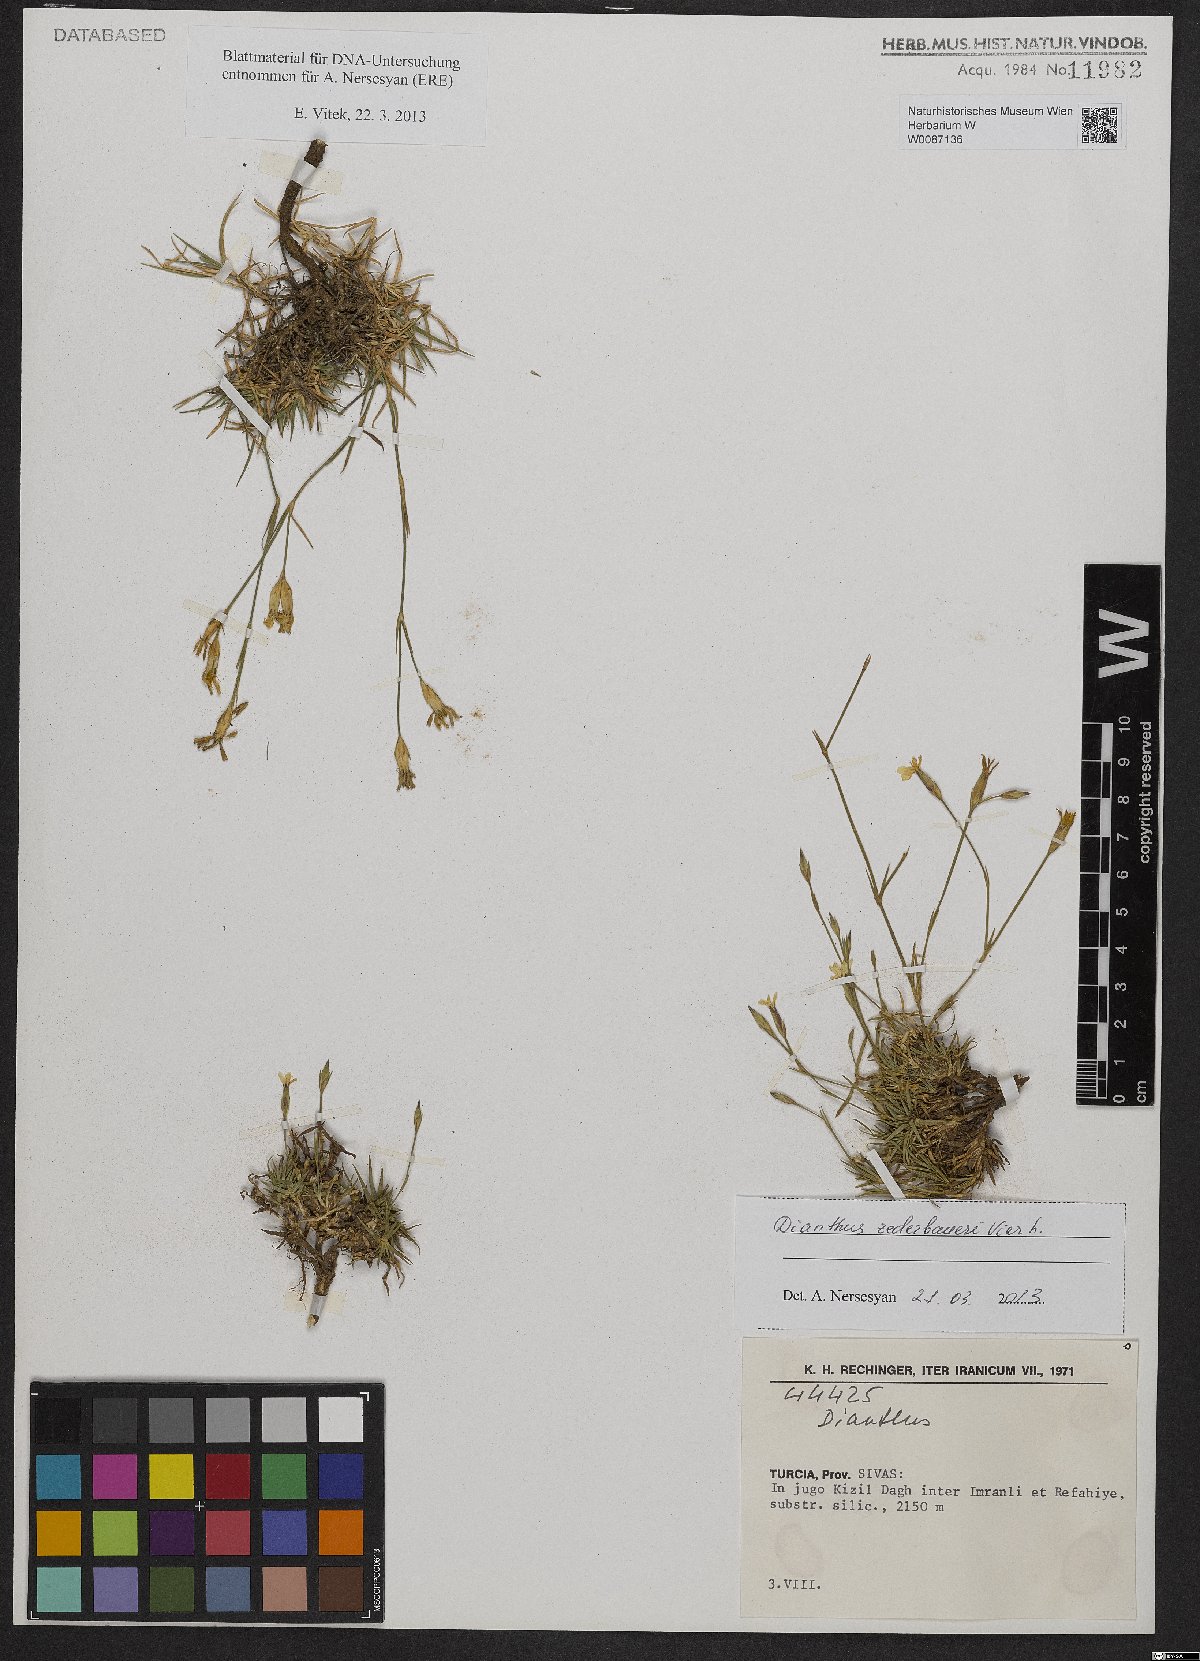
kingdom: Plantae
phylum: Tracheophyta
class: Magnoliopsida
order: Caryophyllales
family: Caryophyllaceae
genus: Dianthus
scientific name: Dianthus zederbaueri
